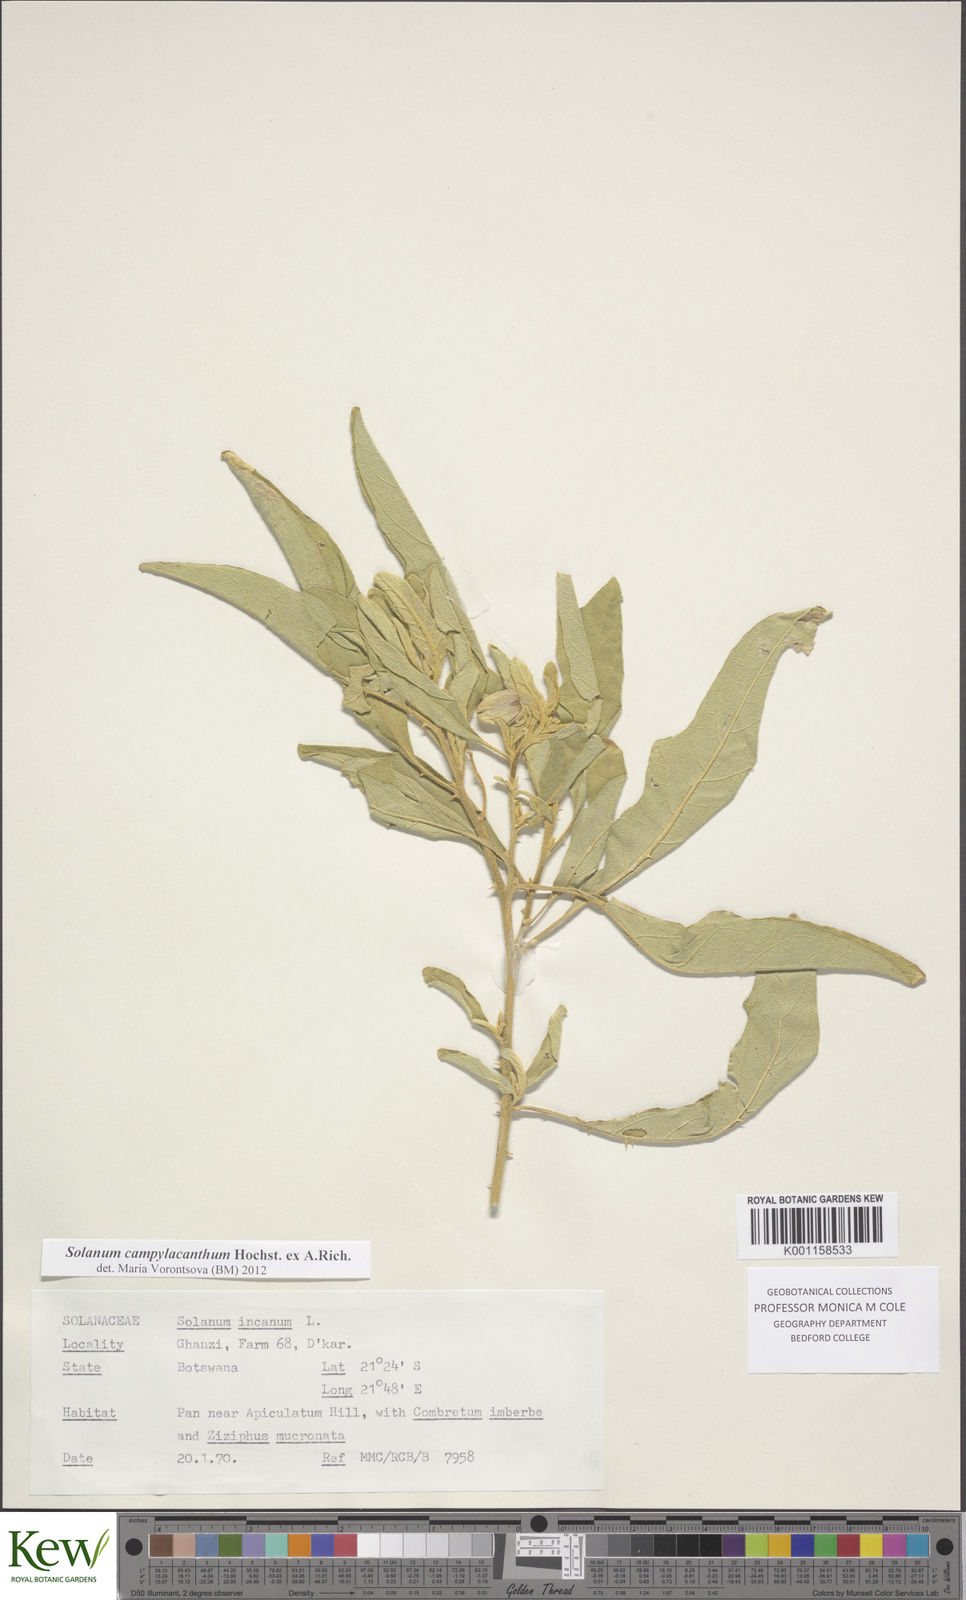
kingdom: Plantae
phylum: Tracheophyta
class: Magnoliopsida
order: Solanales
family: Solanaceae
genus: Solanum
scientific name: Solanum campylacanthum
